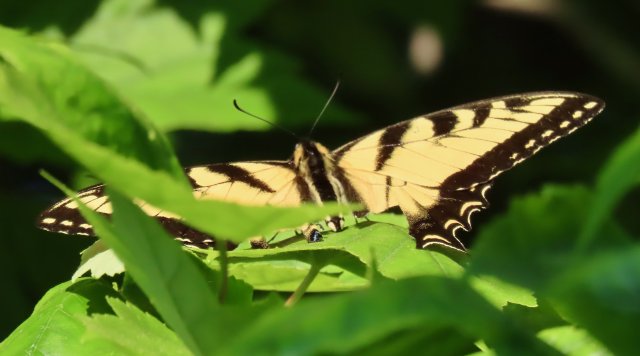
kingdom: Animalia
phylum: Arthropoda
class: Insecta
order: Lepidoptera
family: Papilionidae
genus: Pterourus
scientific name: Pterourus glaucus
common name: Eastern Tiger Swallowtail
